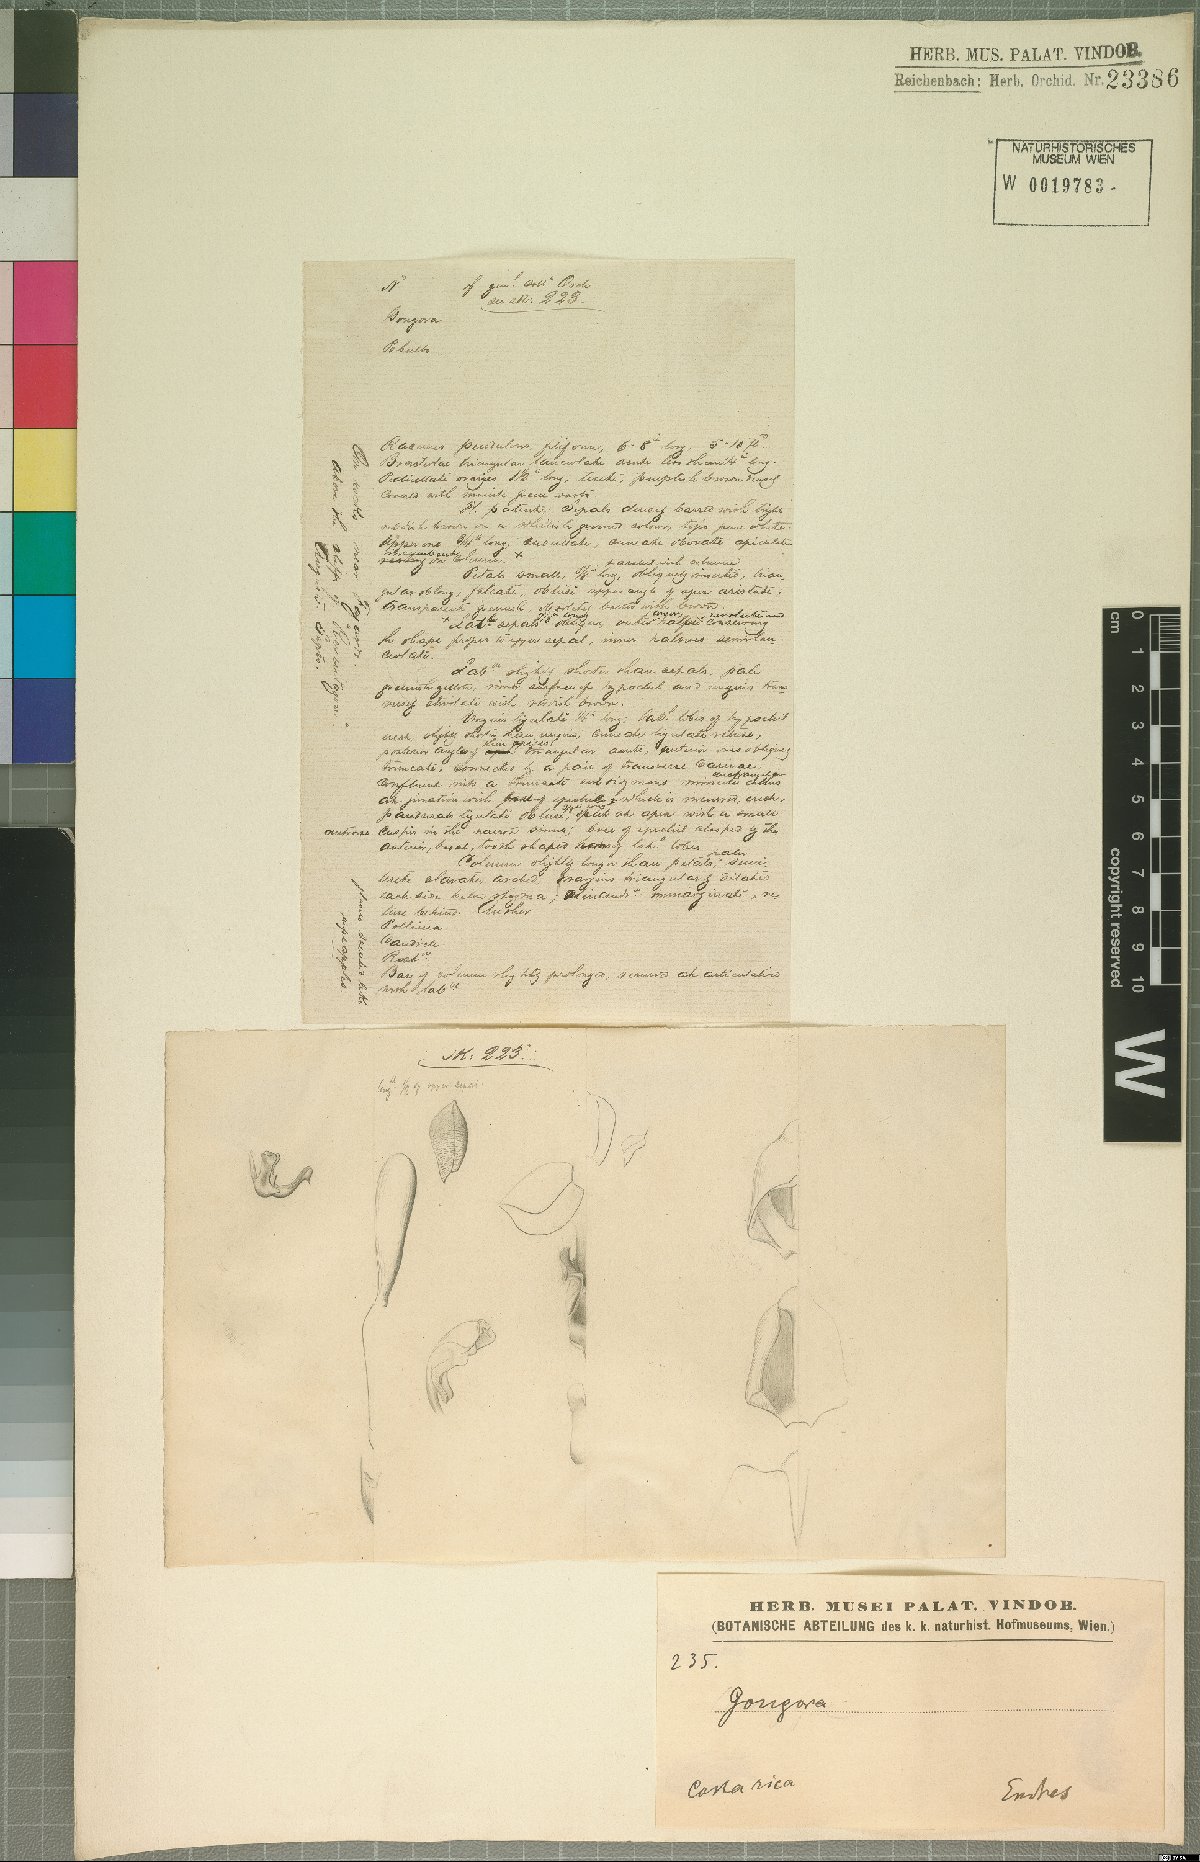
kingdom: Plantae
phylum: Tracheophyta
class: Liliopsida
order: Asparagales
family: Orchidaceae
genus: Gongora
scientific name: Gongora
